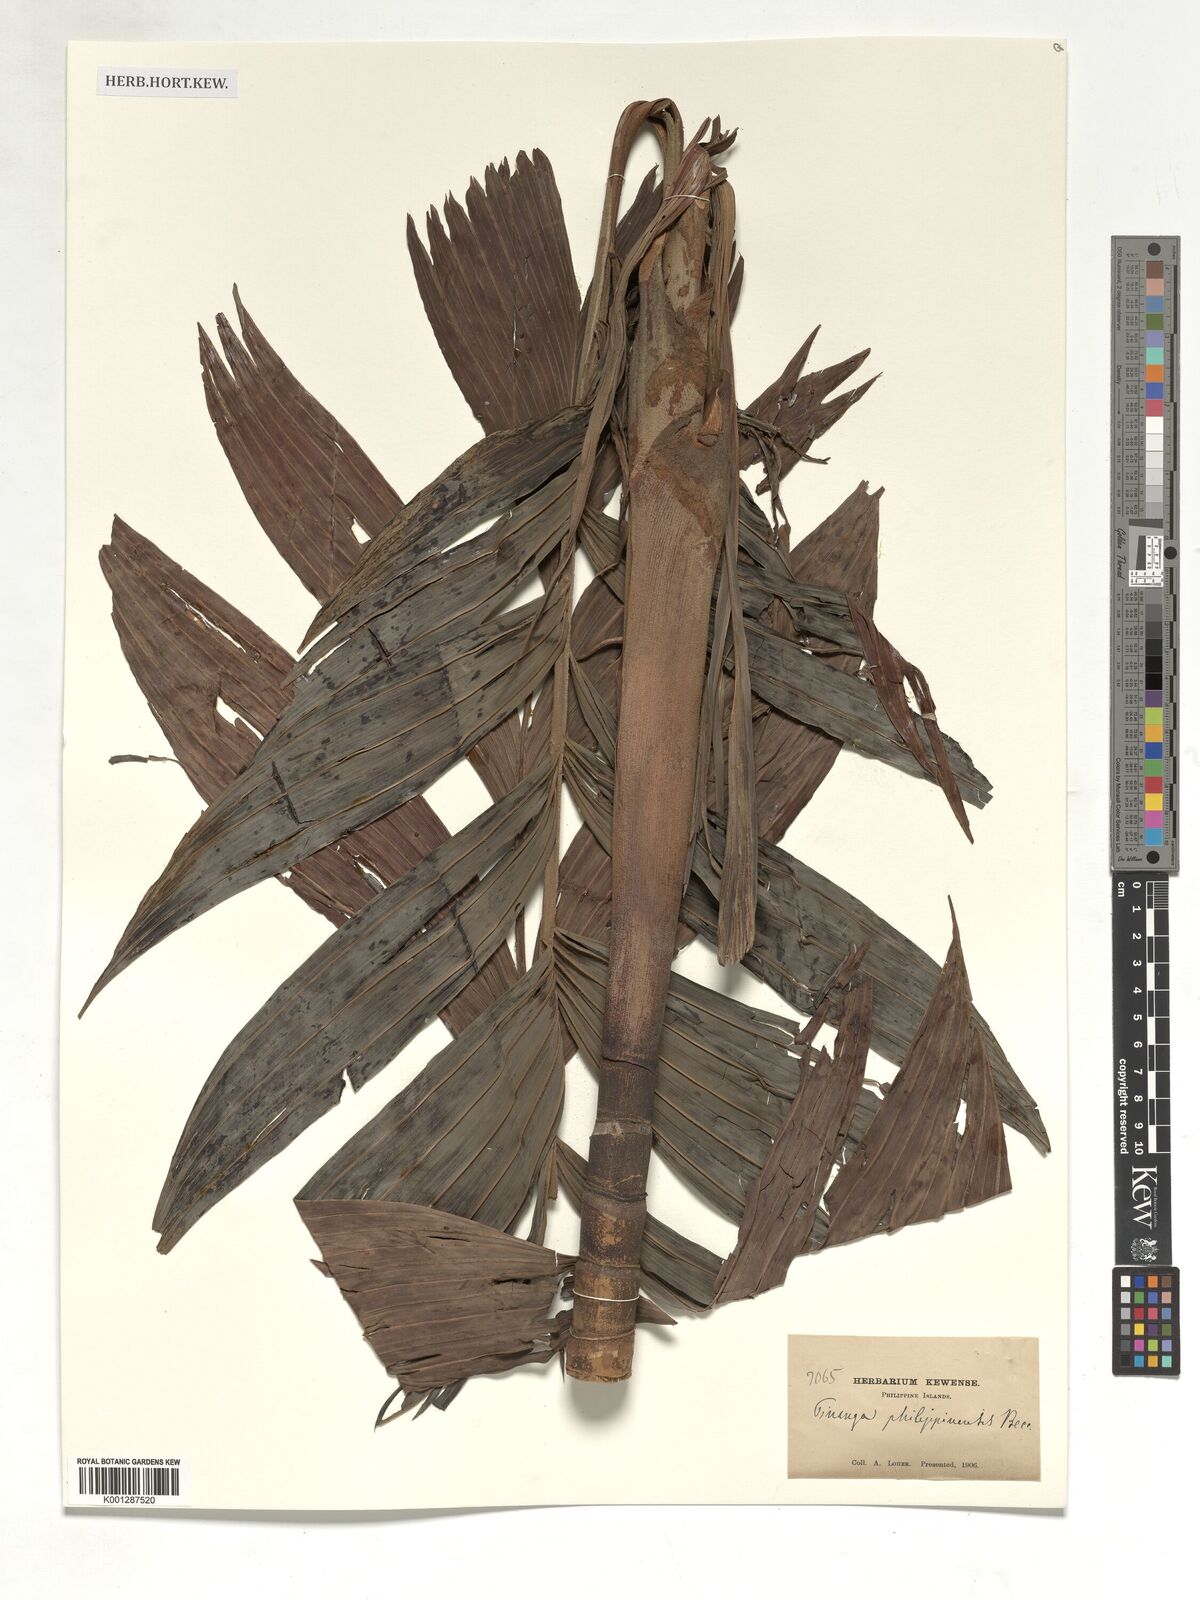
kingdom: Plantae
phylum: Tracheophyta
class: Liliopsida
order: Arecales
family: Arecaceae
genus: Pinanga
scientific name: Pinanga philippinensis
